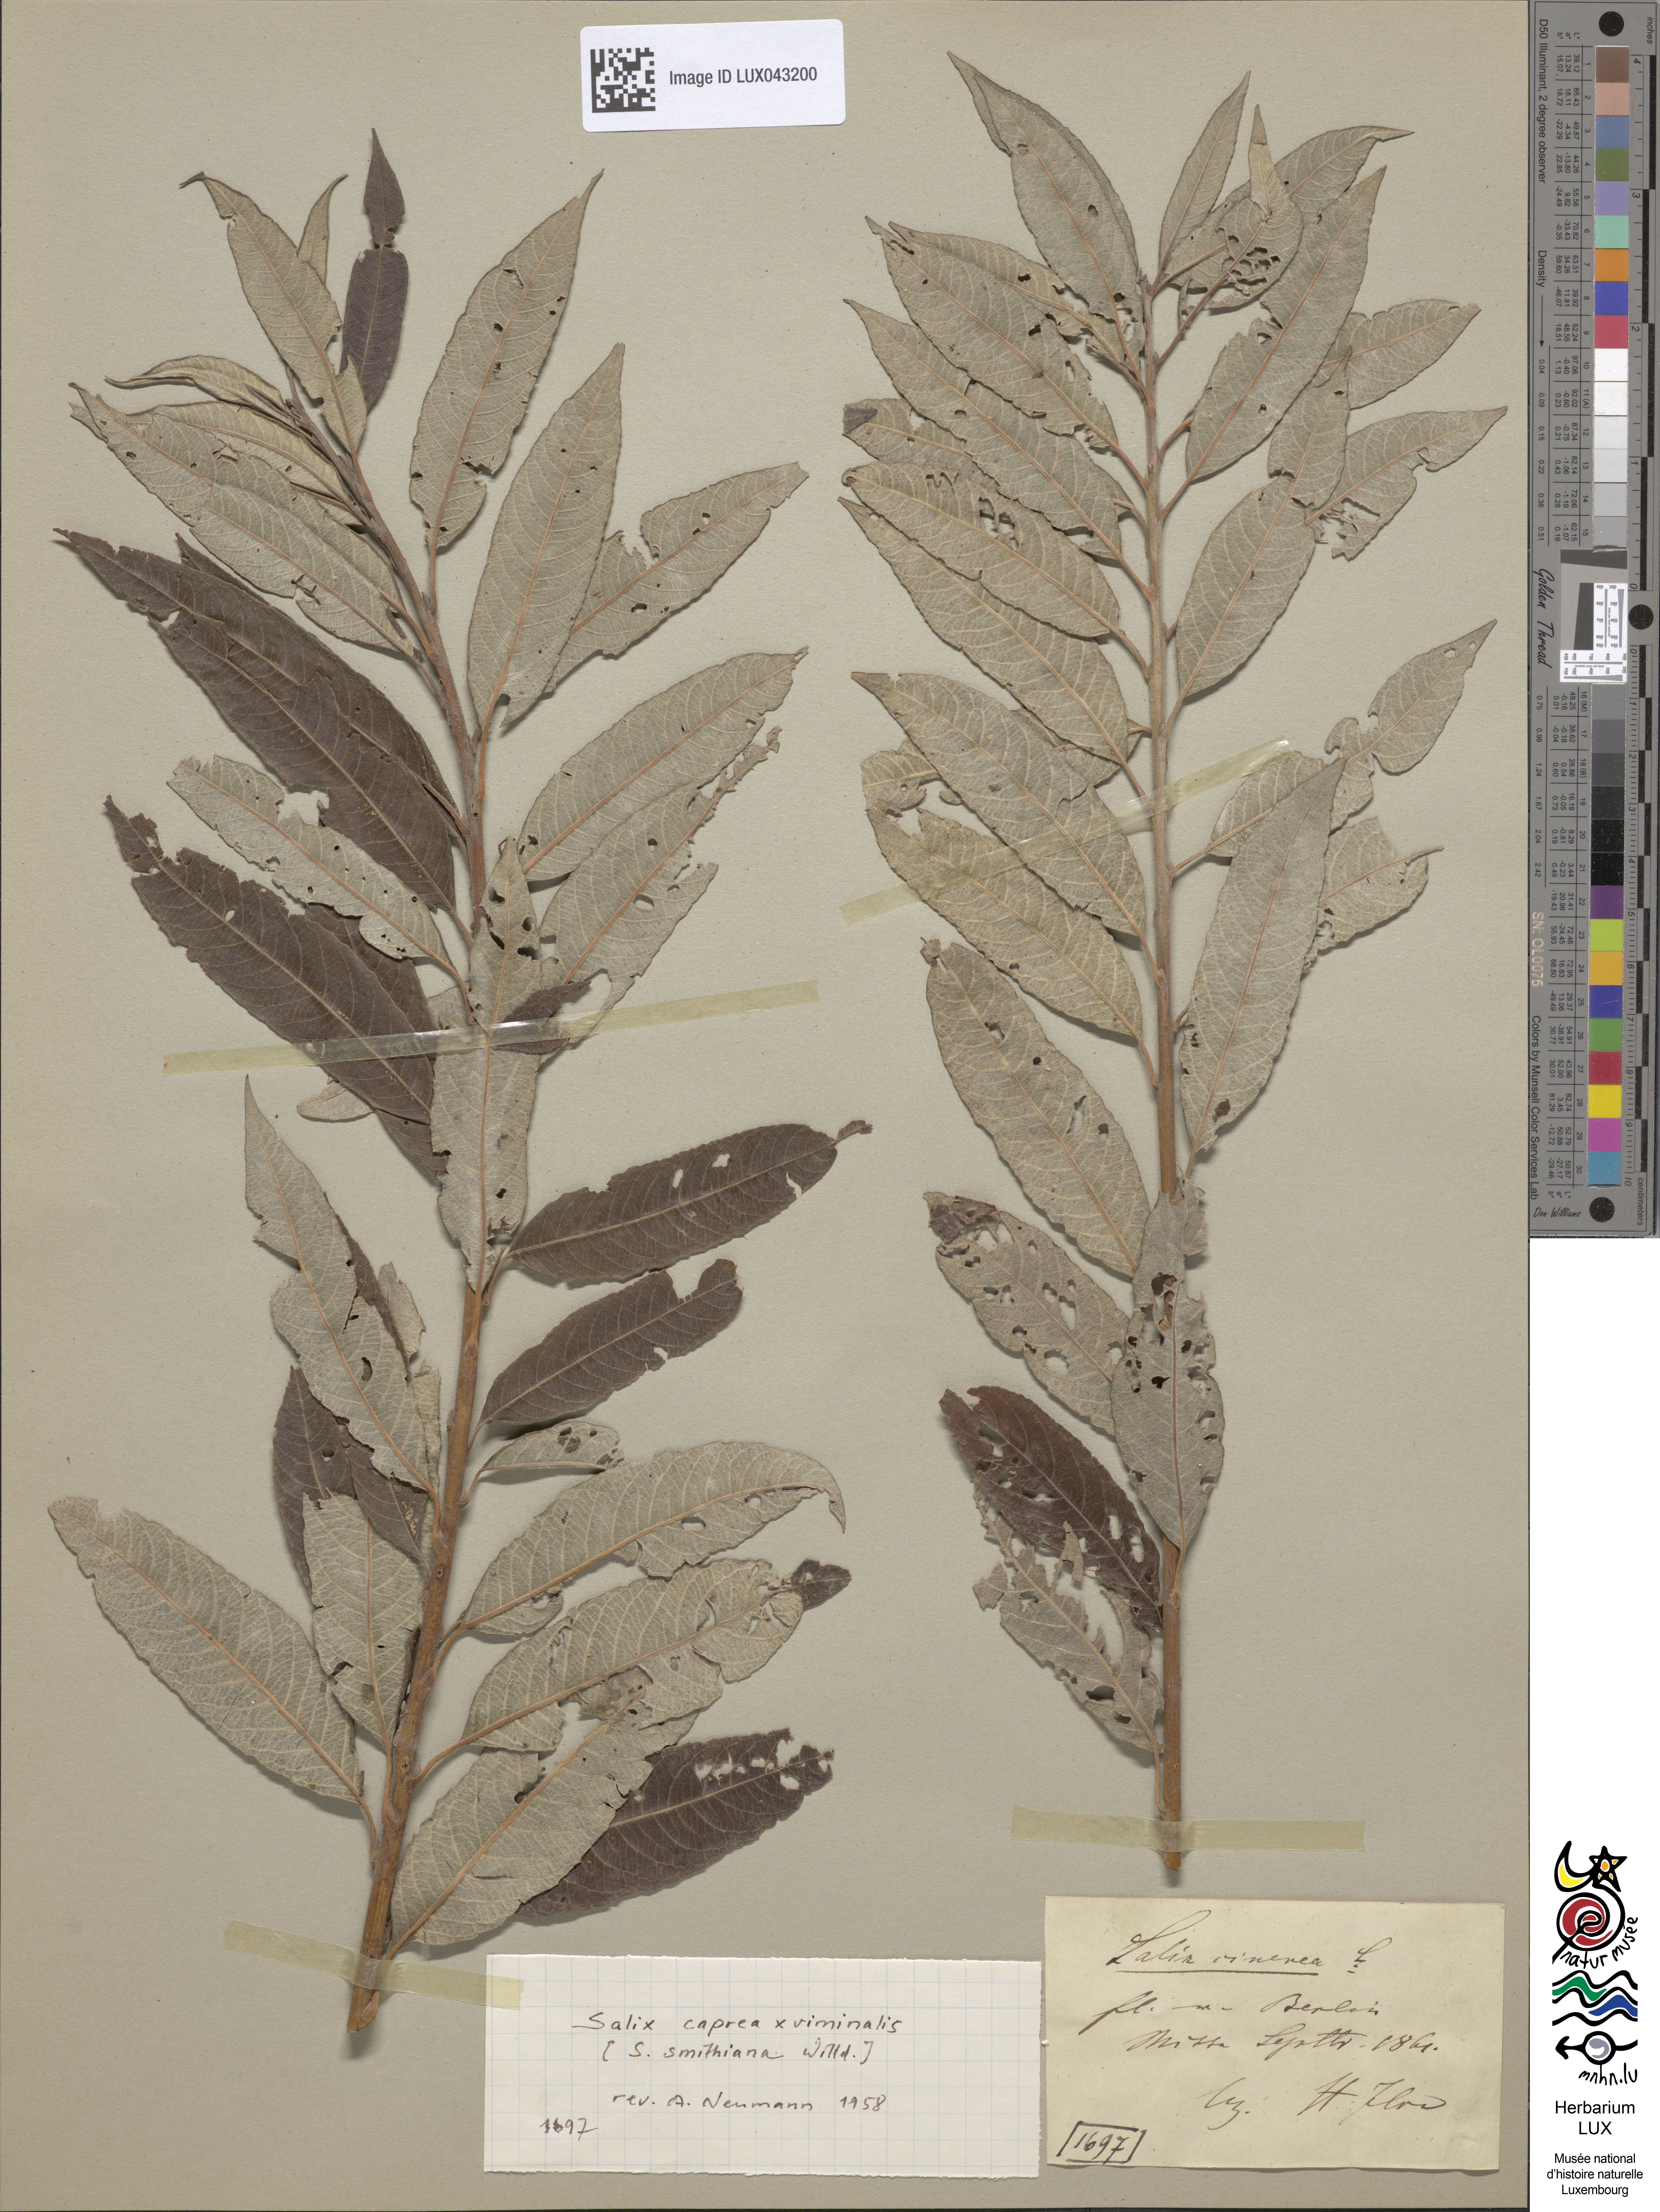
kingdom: Plantae
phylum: Tracheophyta
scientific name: Tracheophyta
